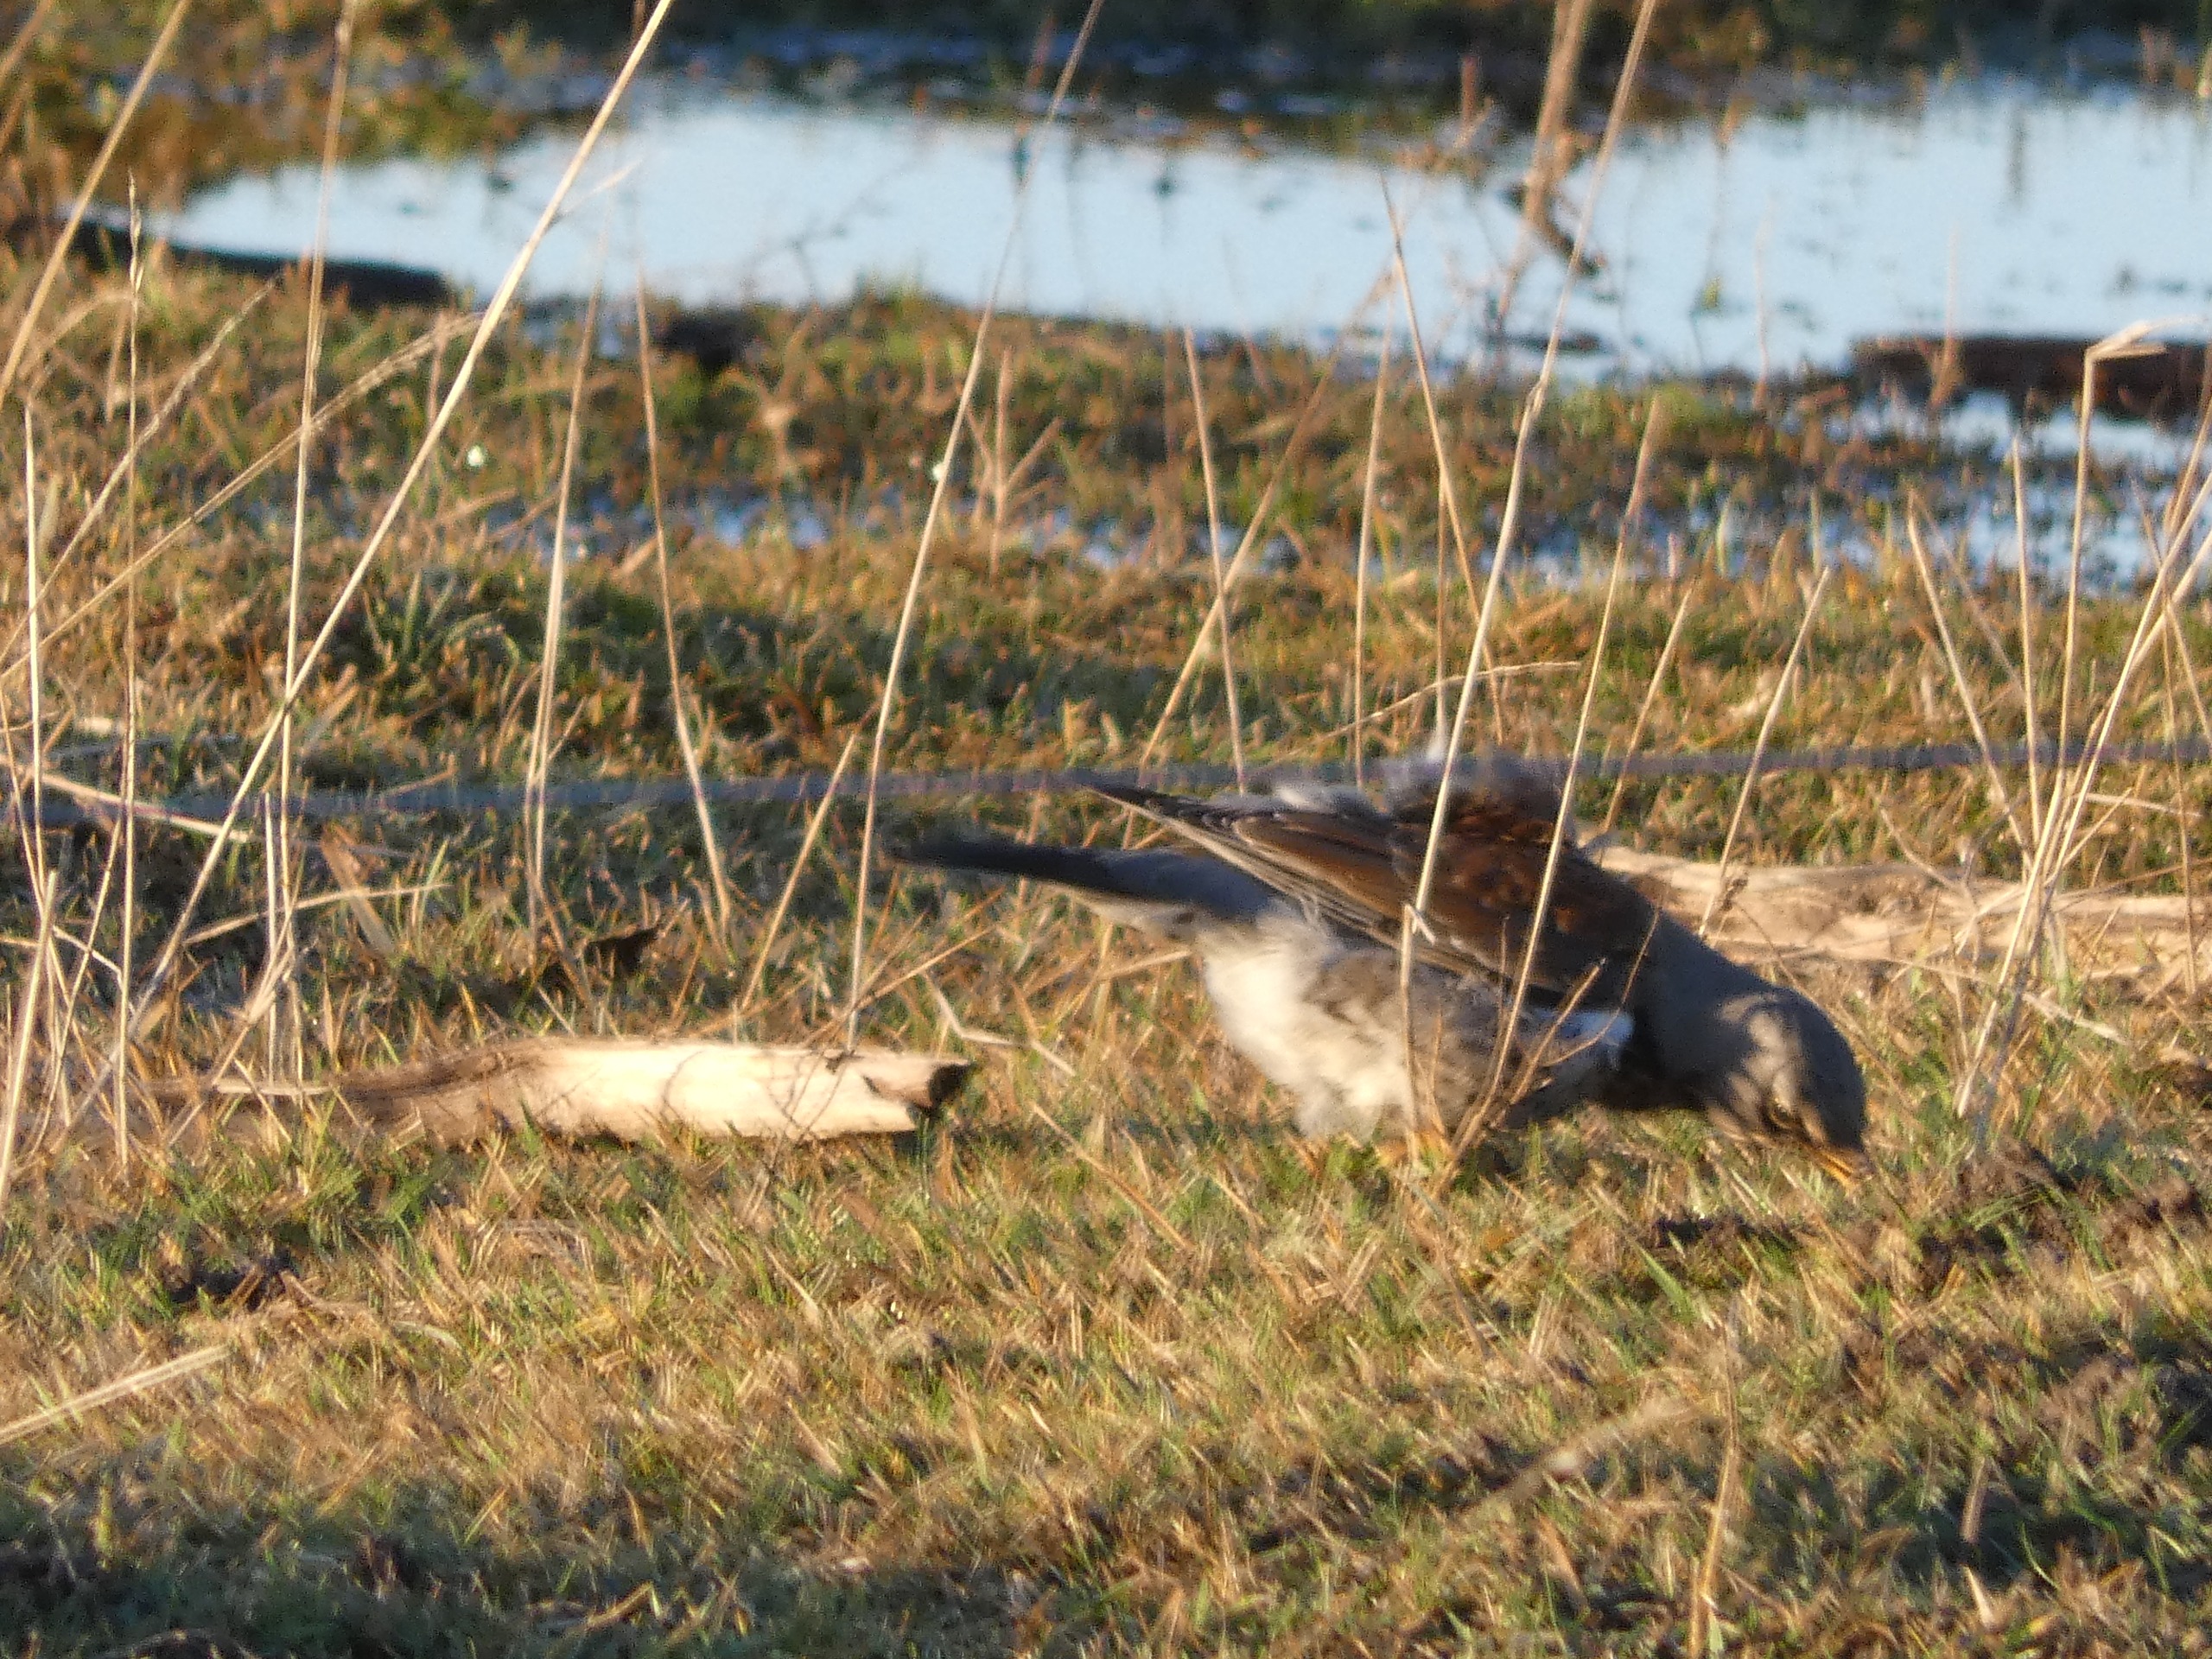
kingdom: Animalia
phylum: Chordata
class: Aves
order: Passeriformes
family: Turdidae
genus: Turdus
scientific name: Turdus pilaris
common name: Sjagger
